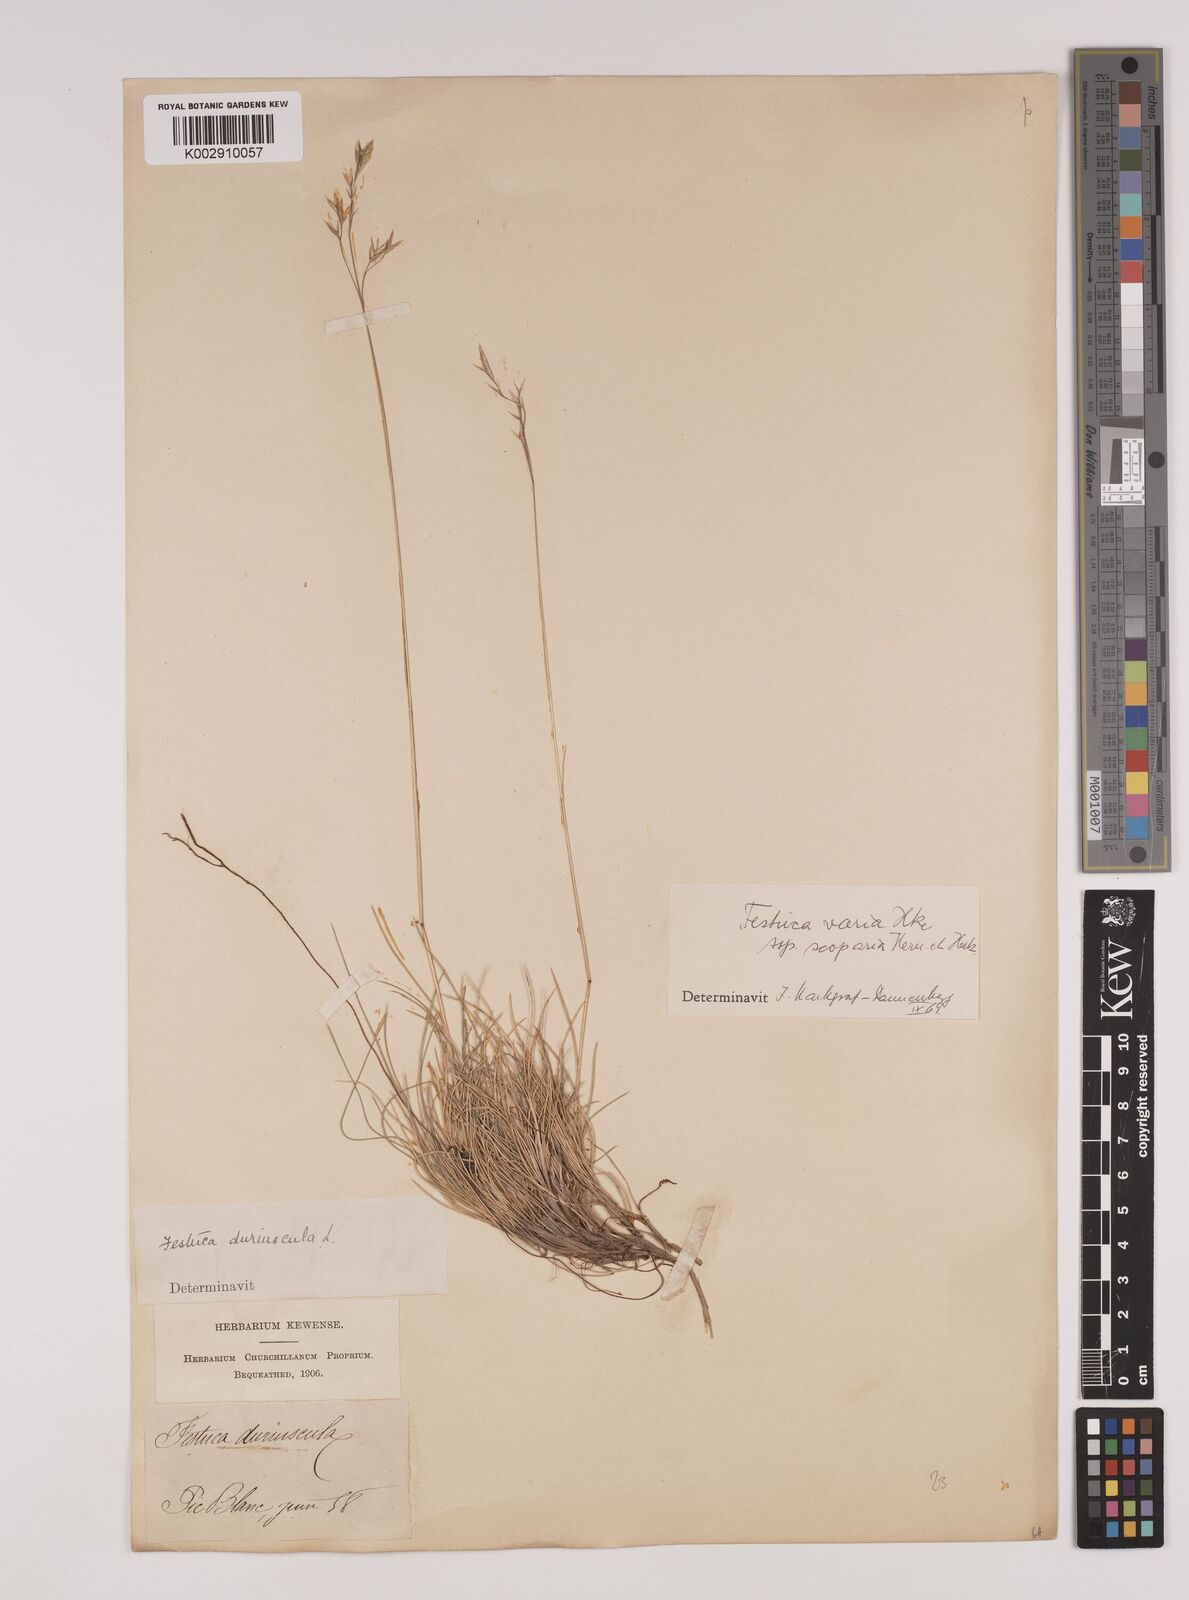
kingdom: Plantae
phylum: Tracheophyta
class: Liliopsida
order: Poales
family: Poaceae
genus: Festuca
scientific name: Festuca gautieri
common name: Spiky fescue
